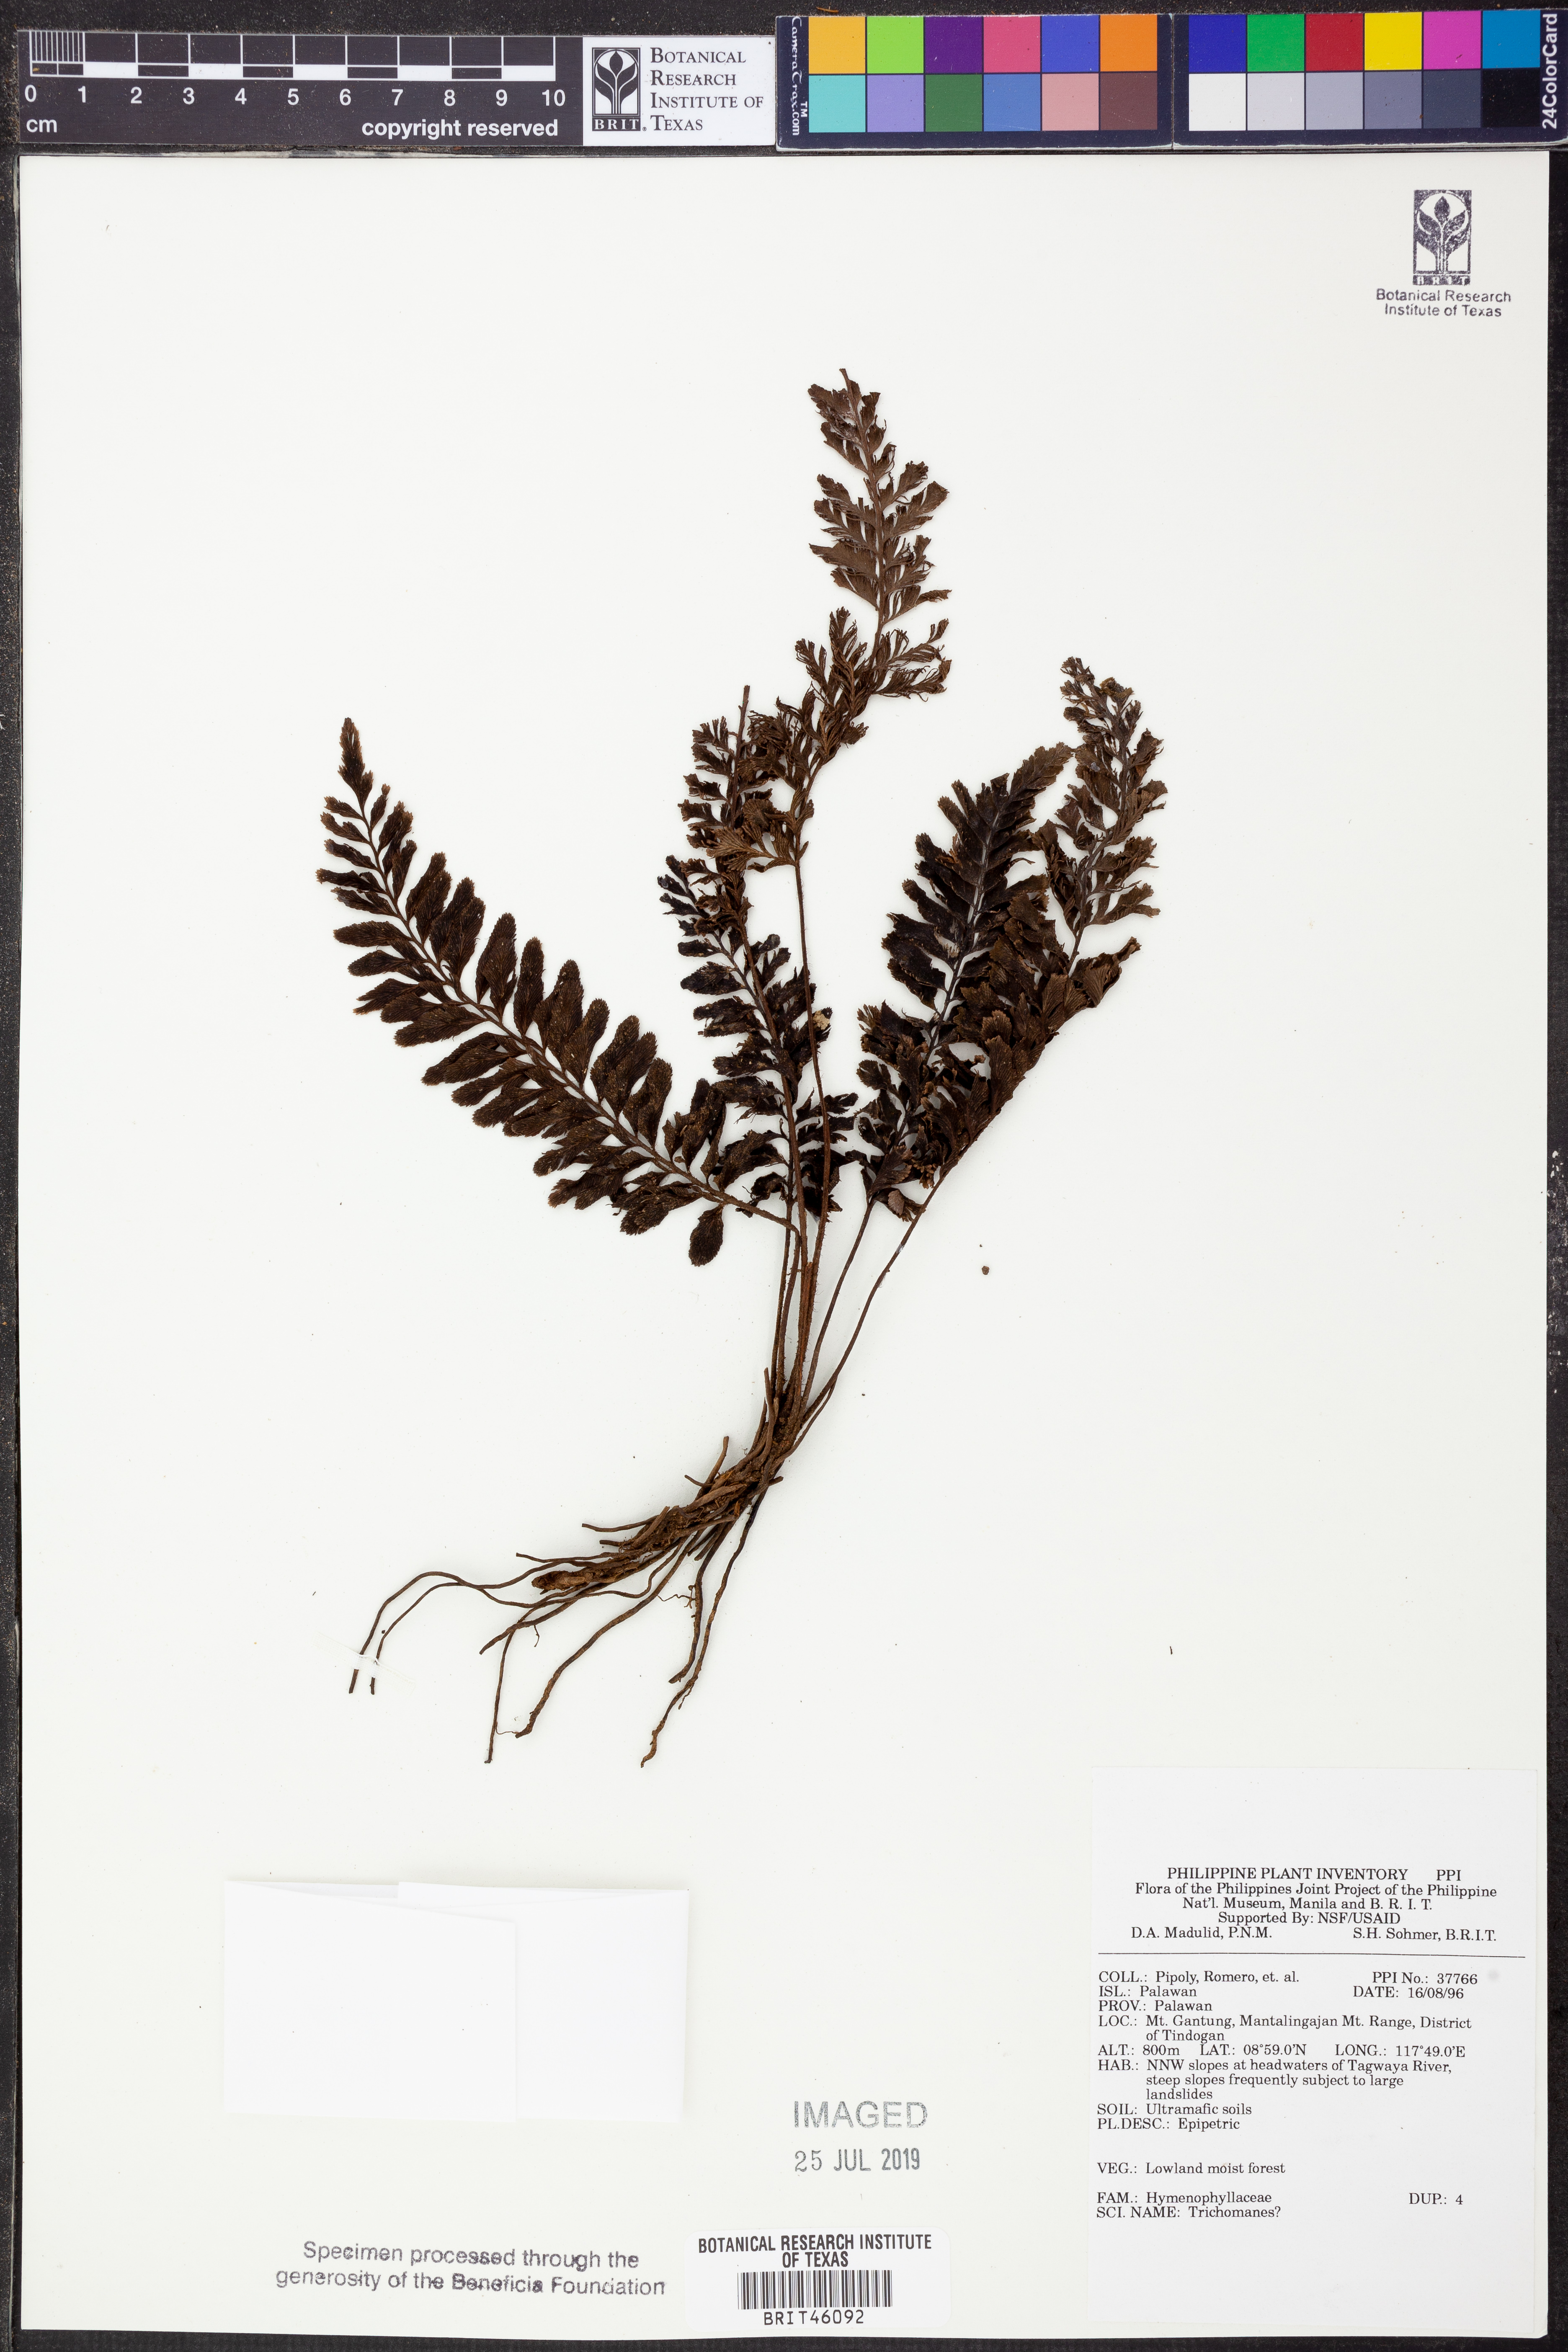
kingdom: Plantae
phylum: Tracheophyta
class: Polypodiopsida
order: Hymenophyllales
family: Hymenophyllaceae
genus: Trichomanes
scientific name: Trichomanes
